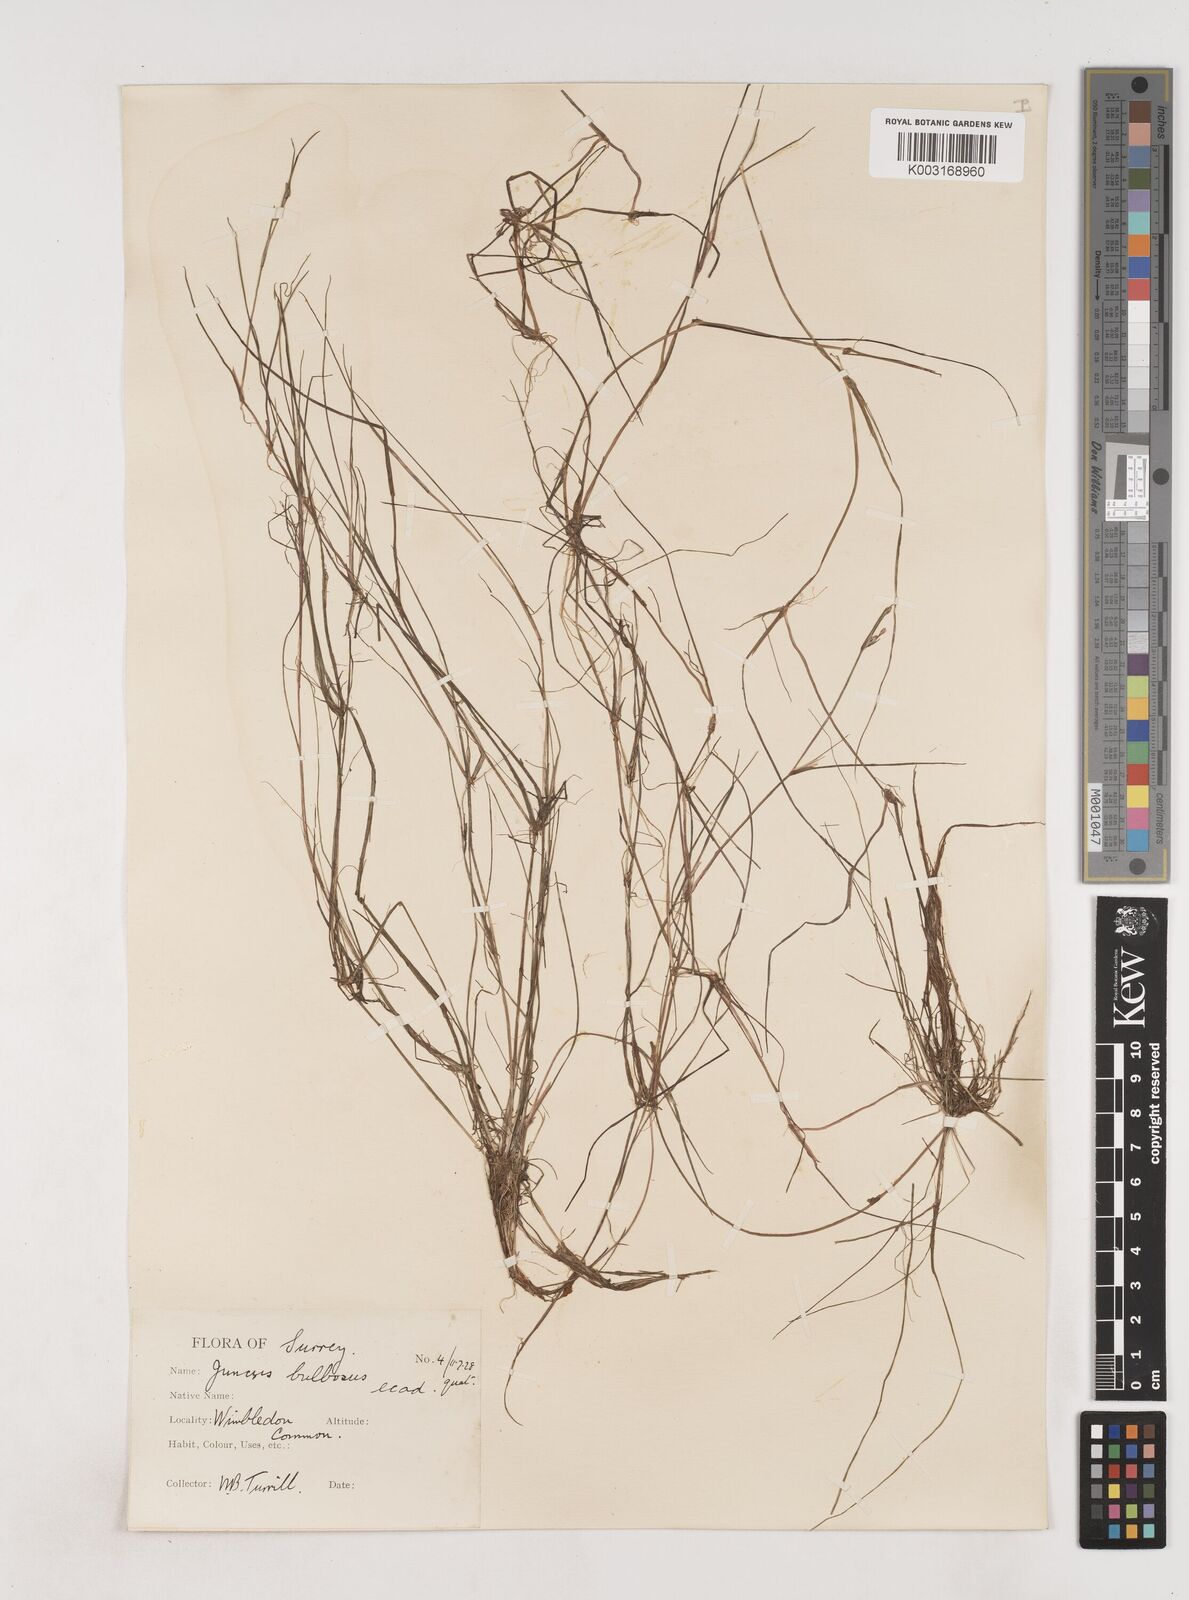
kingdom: Plantae
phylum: Tracheophyta
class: Liliopsida
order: Poales
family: Juncaceae
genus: Juncus
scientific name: Juncus bulbosus
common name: Bulbous rush
